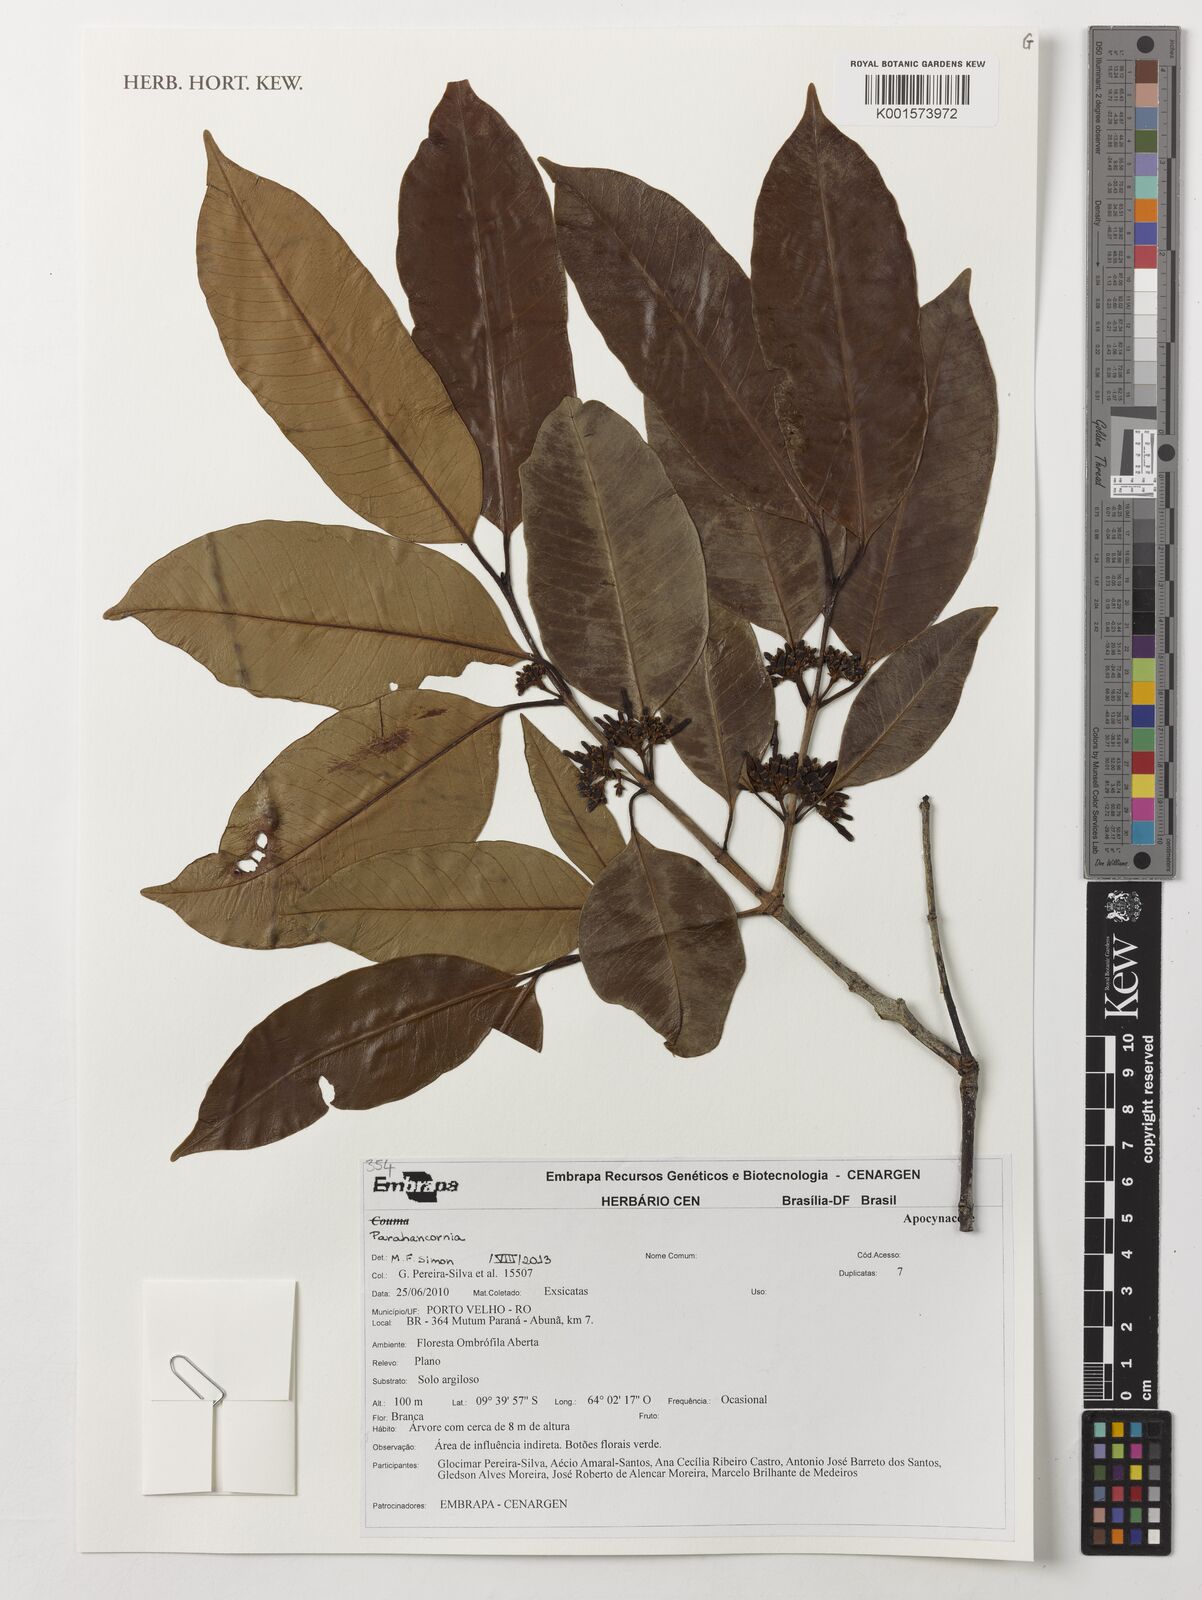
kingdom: Plantae
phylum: Tracheophyta
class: Magnoliopsida
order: Gentianales
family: Apocynaceae
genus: Parahancornia
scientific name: Parahancornia
